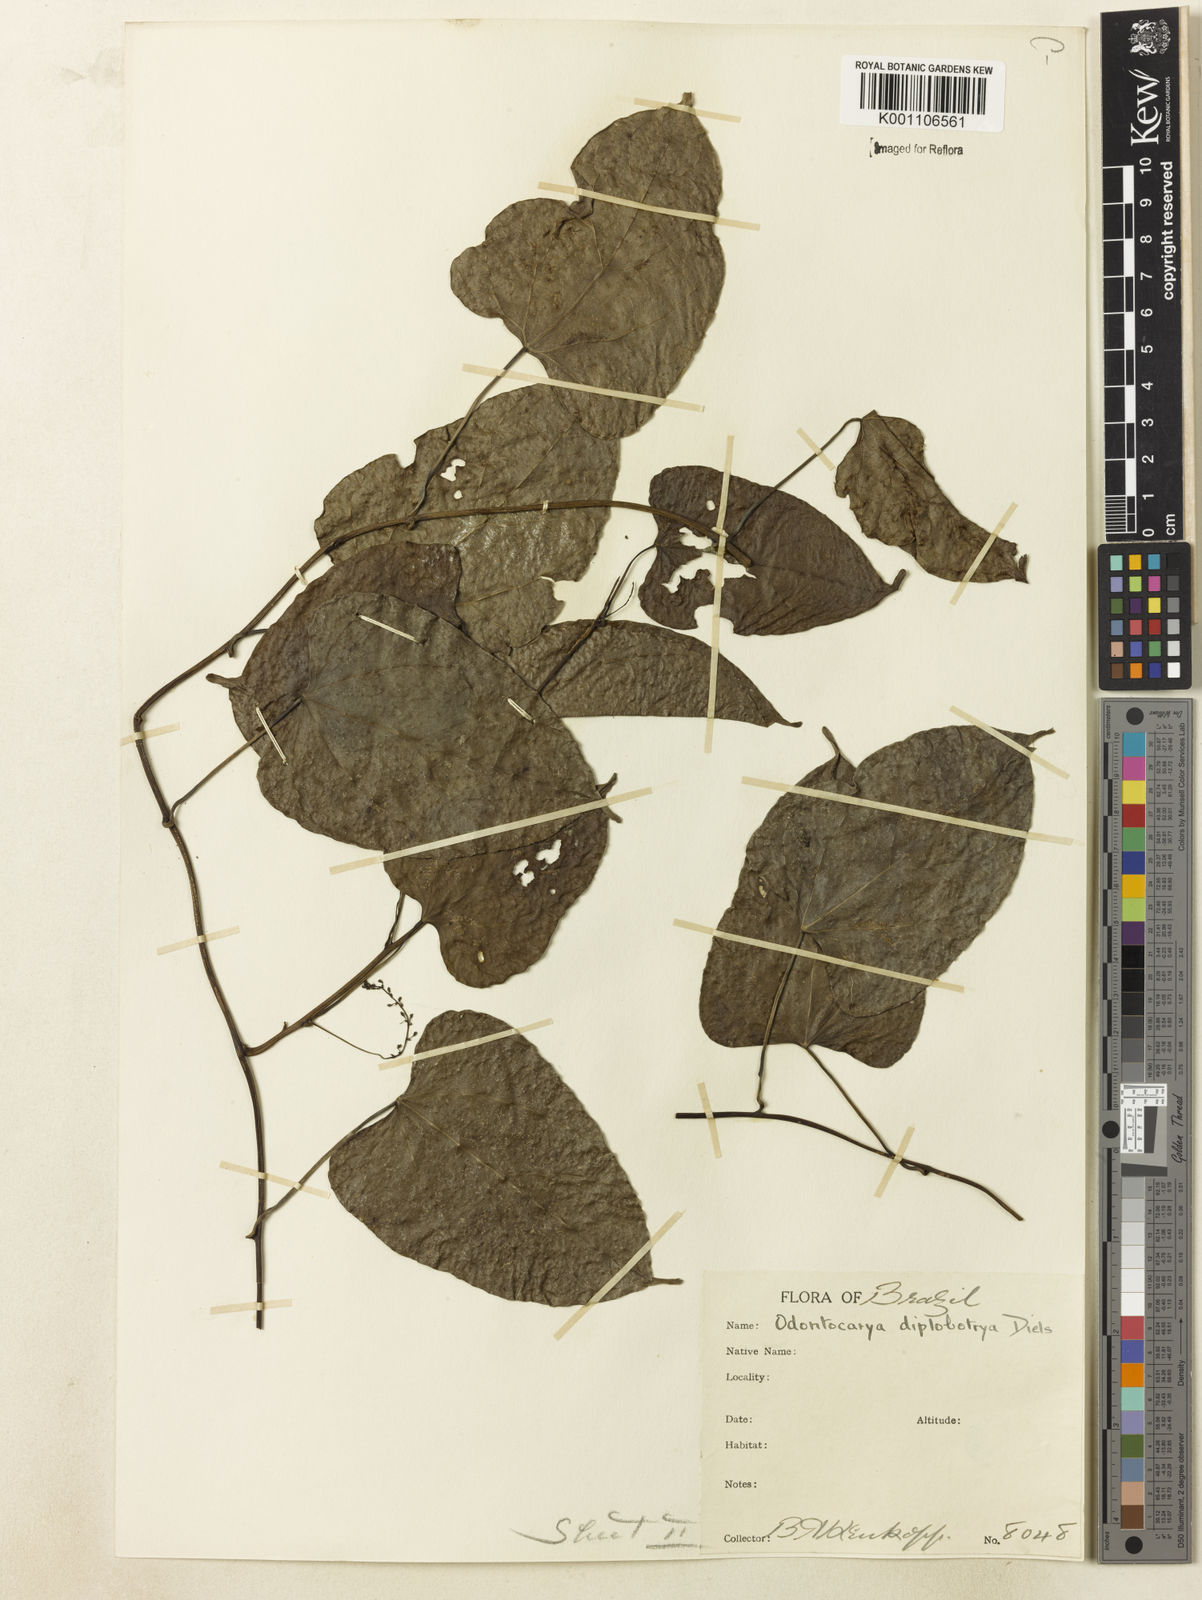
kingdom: Plantae
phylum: Tracheophyta
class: Magnoliopsida
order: Ranunculales
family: Menispermaceae
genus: Odontocarya
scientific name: Odontocarya diplobotrya
